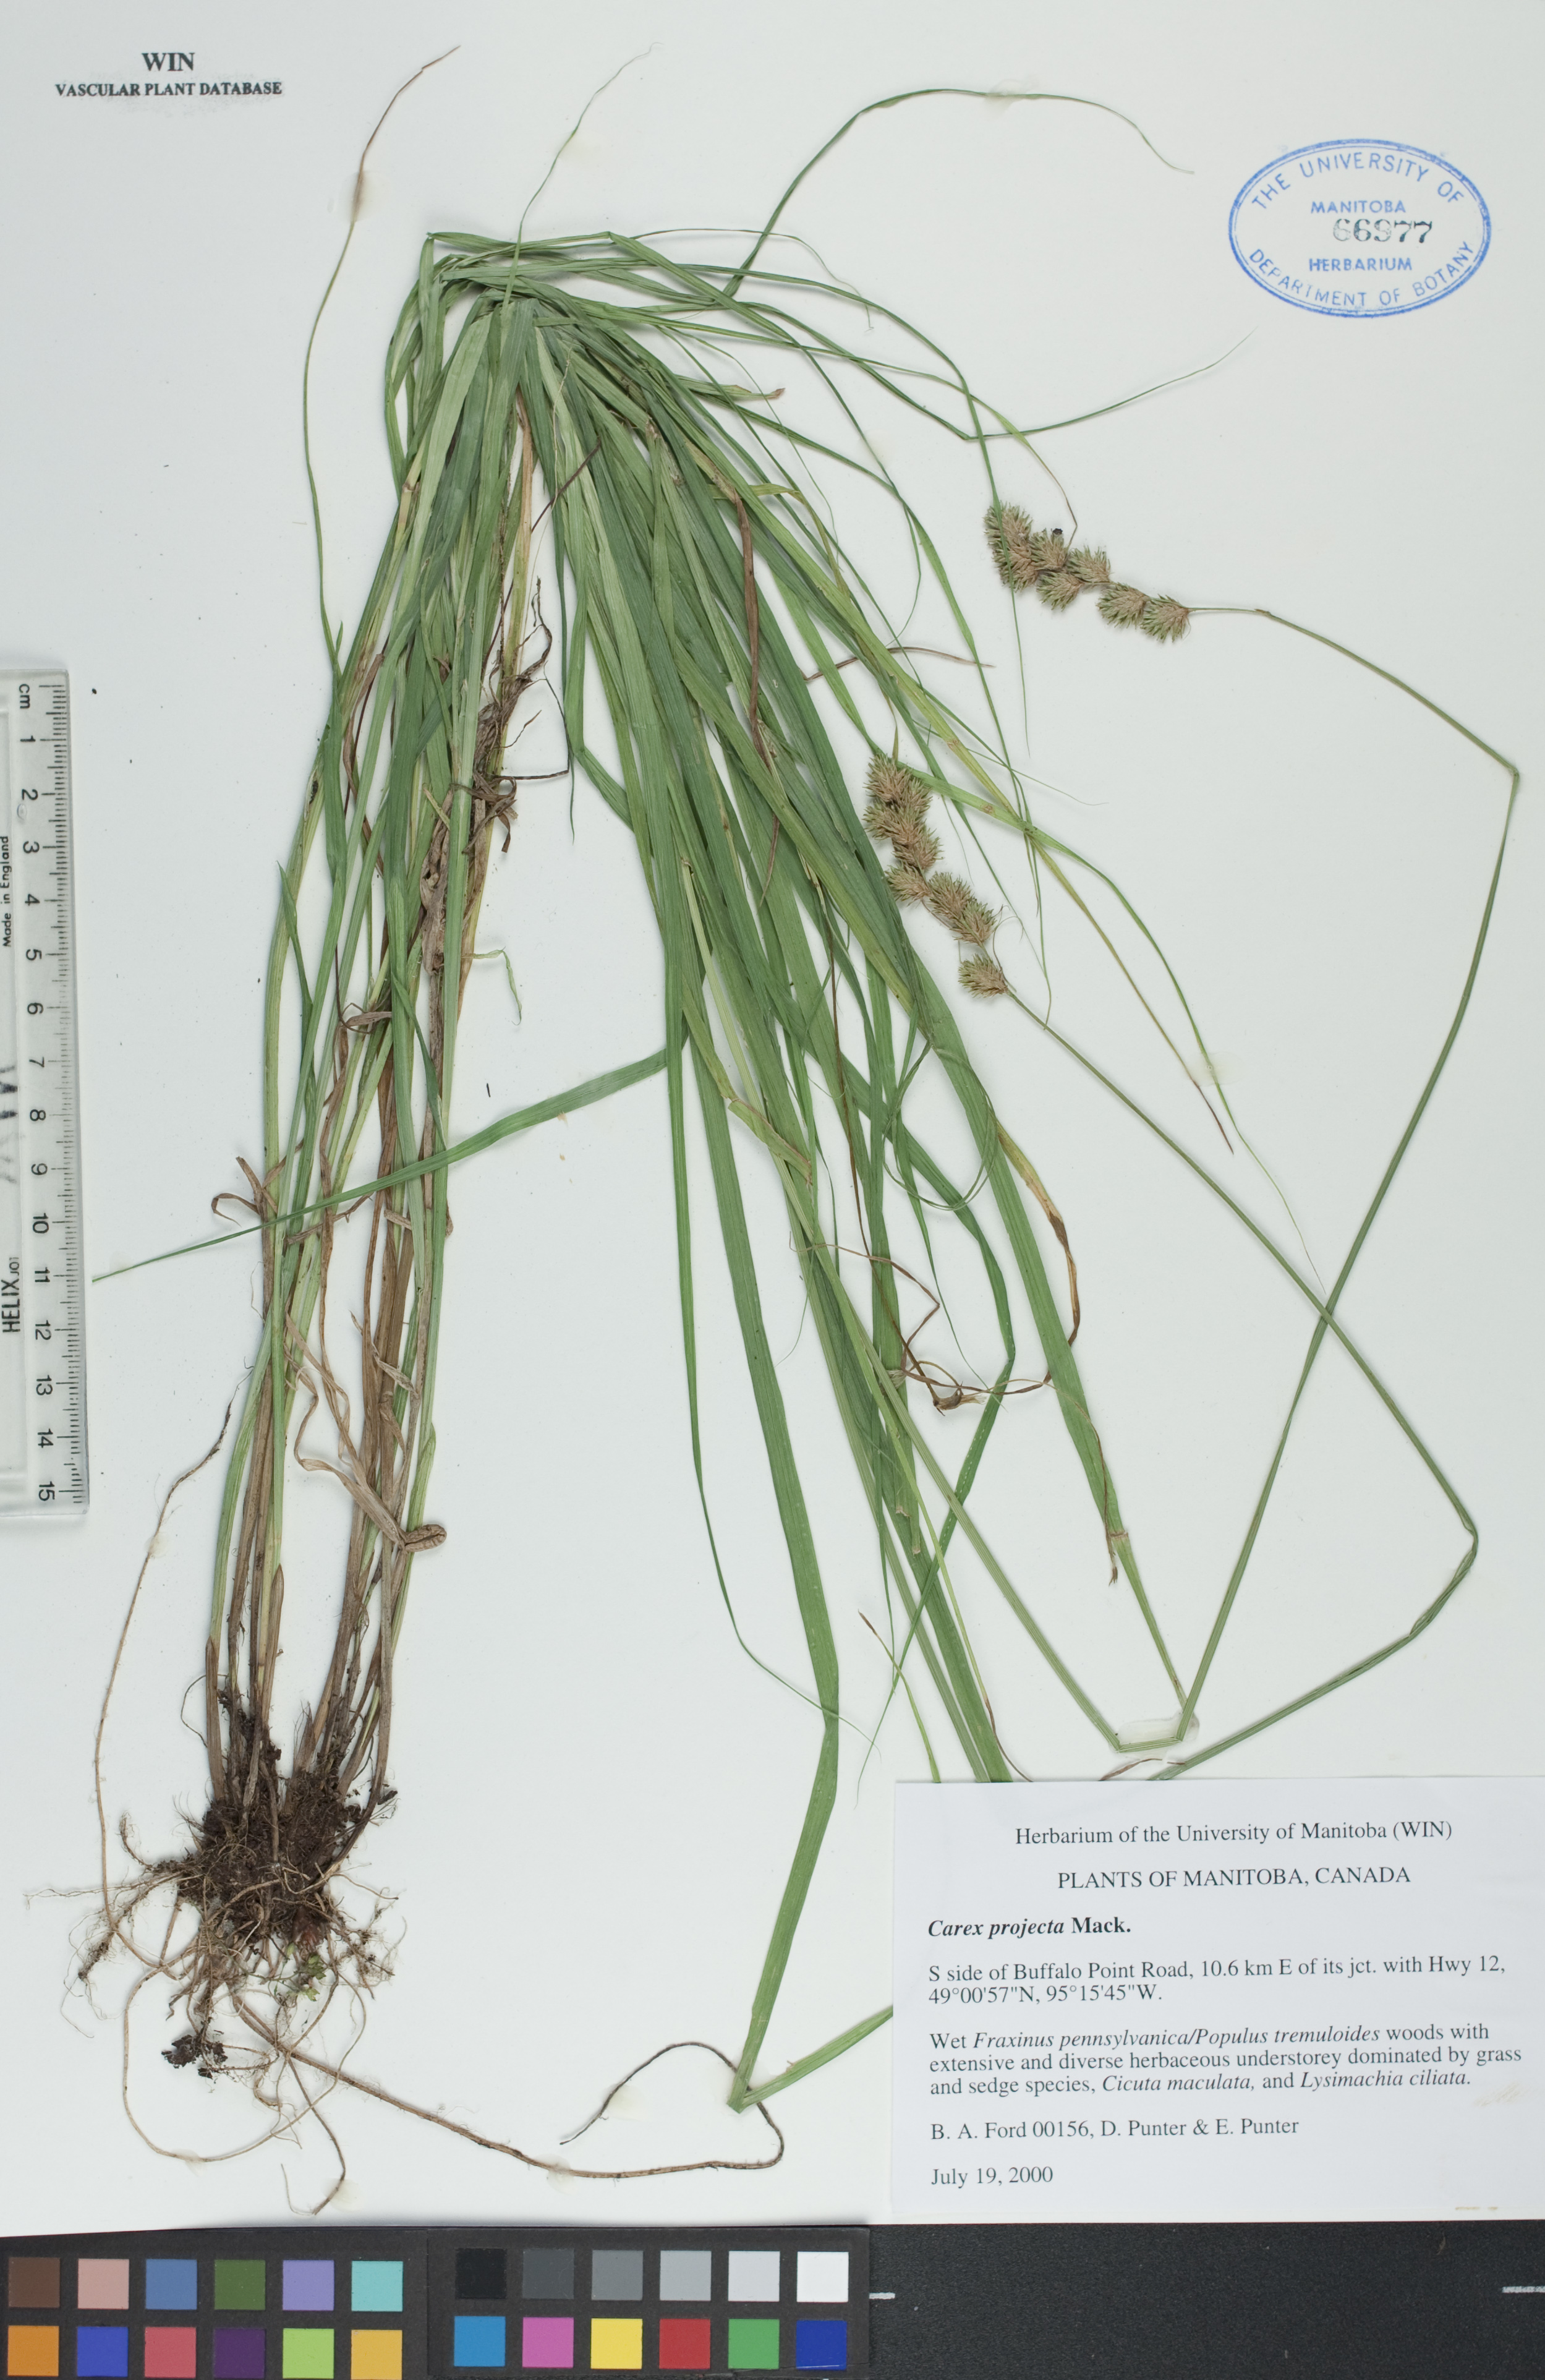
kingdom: Plantae
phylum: Tracheophyta
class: Liliopsida
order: Poales
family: Cyperaceae
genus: Carex
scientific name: Carex projecta
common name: Loose-headed oval sedge
